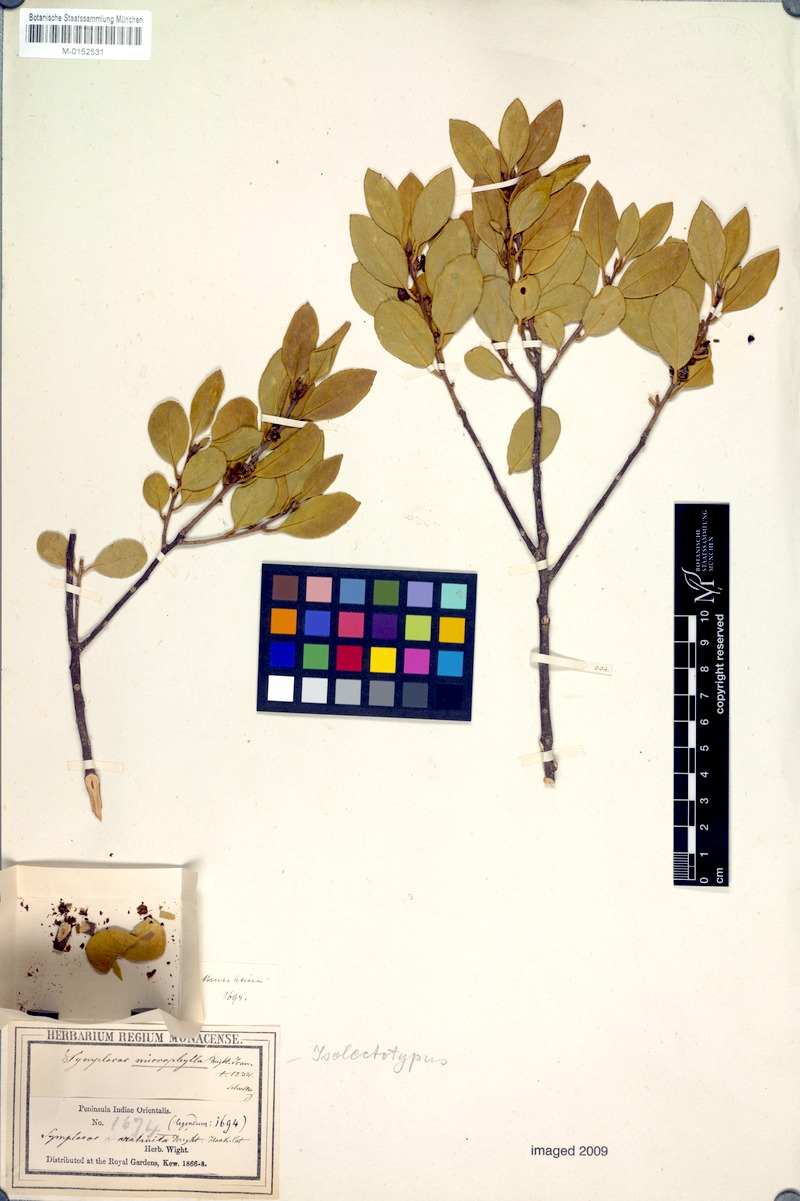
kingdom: Plantae
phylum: Tracheophyta
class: Magnoliopsida
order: Ericales
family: Symplocaceae
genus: Symplocos
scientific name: Symplocos microphylla
